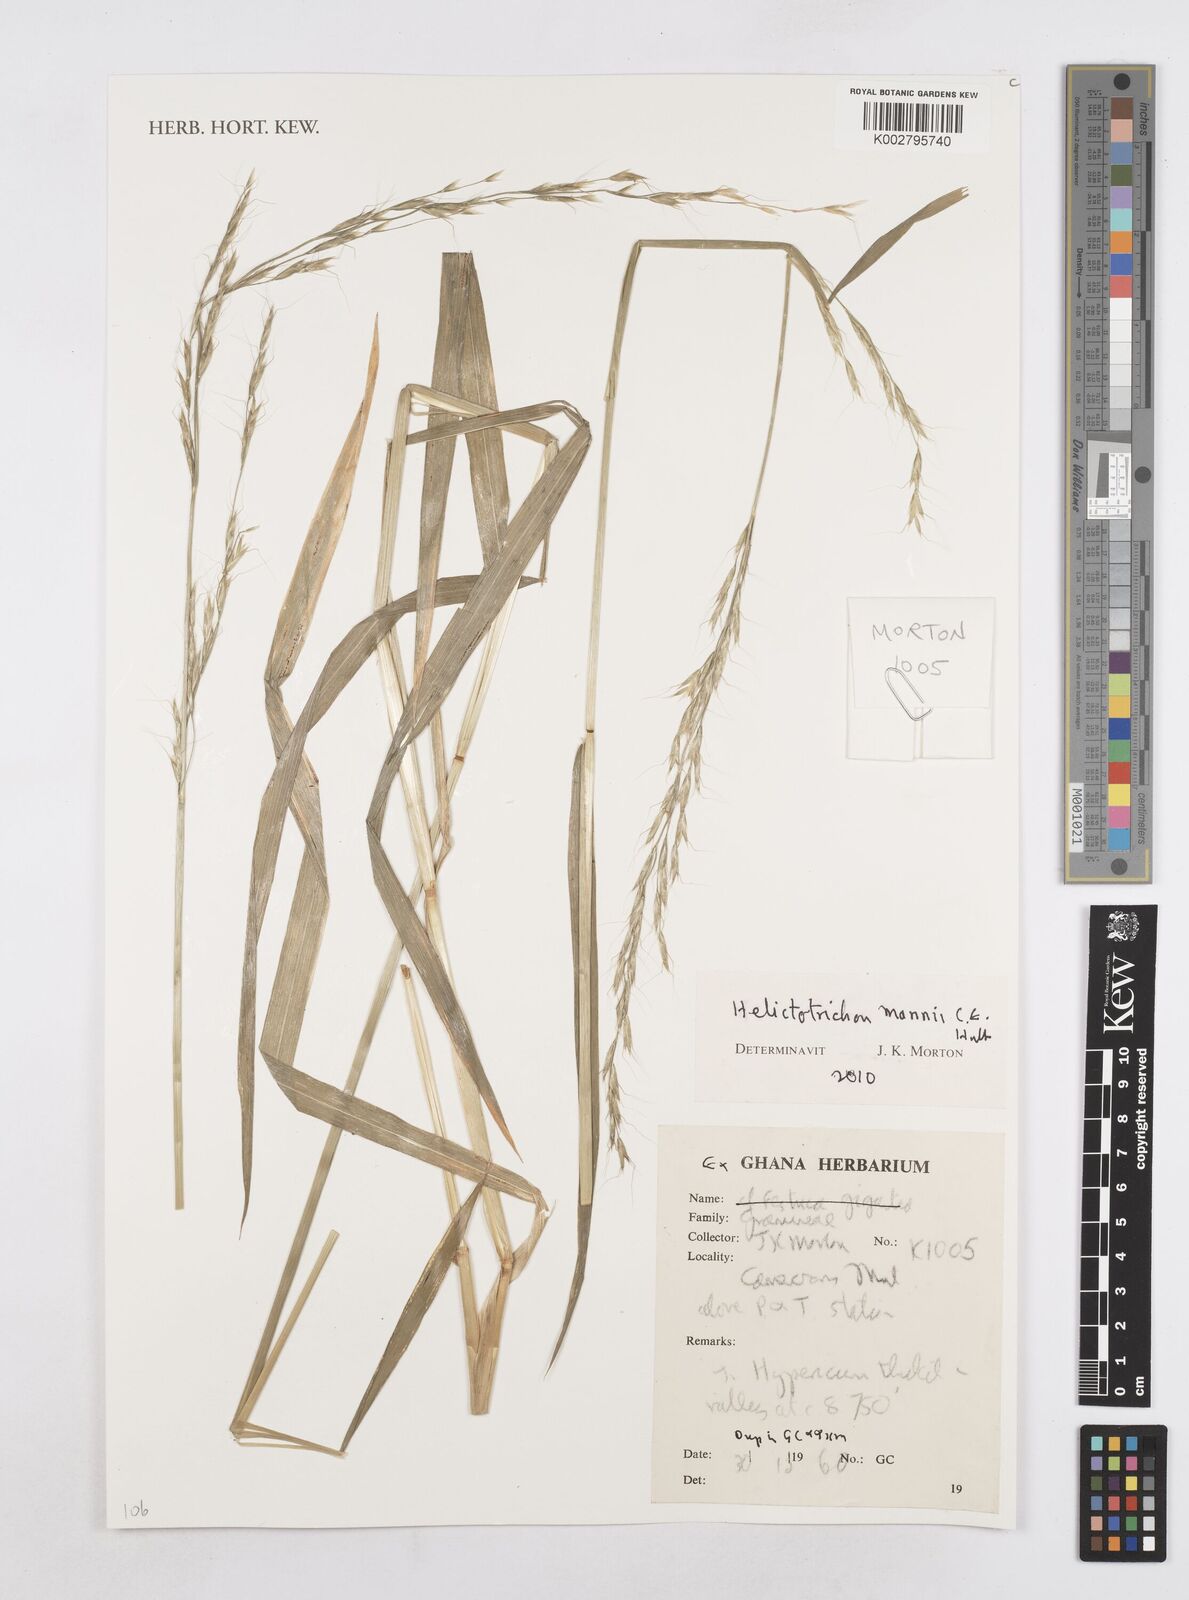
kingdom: Plantae
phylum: Tracheophyta
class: Liliopsida
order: Poales
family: Poaceae
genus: Trisetopsis
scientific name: Trisetopsis mannii
